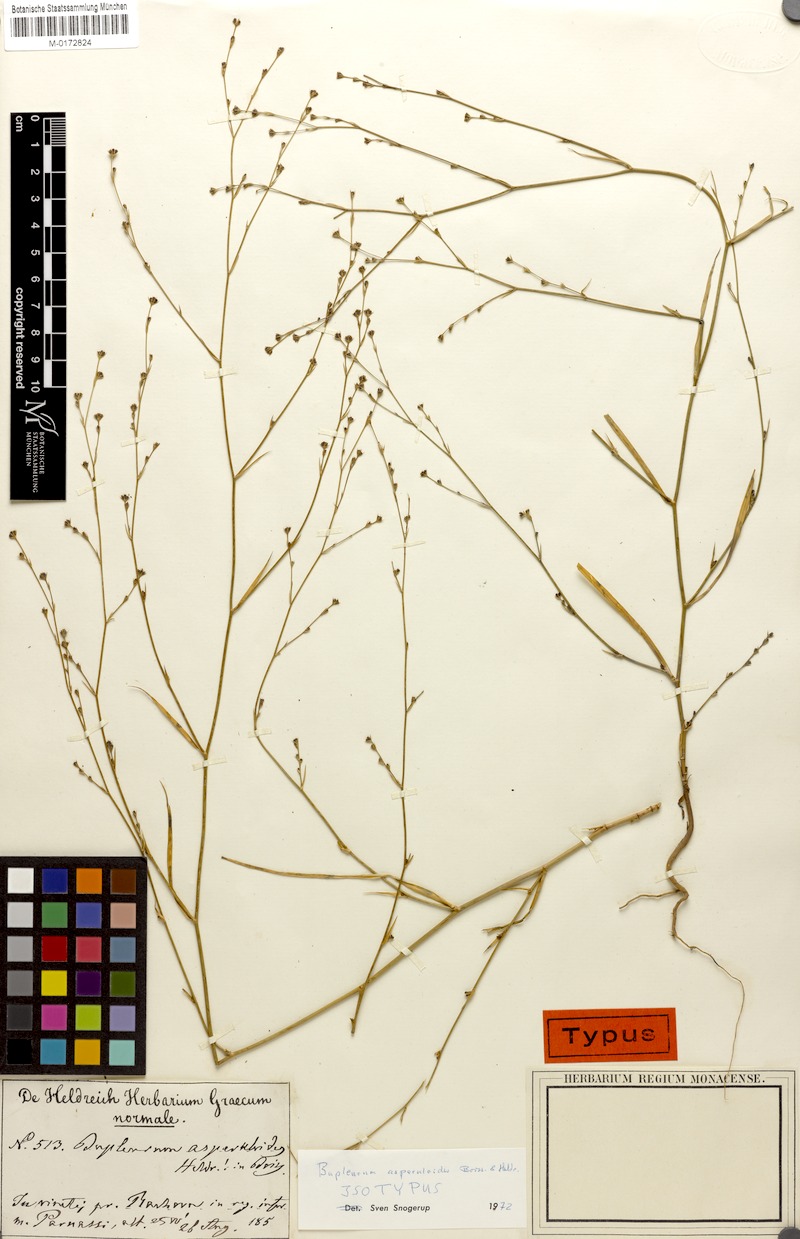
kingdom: Plantae
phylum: Tracheophyta
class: Magnoliopsida
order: Apiales
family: Apiaceae
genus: Bupleurum
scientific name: Bupleurum asperuloides
